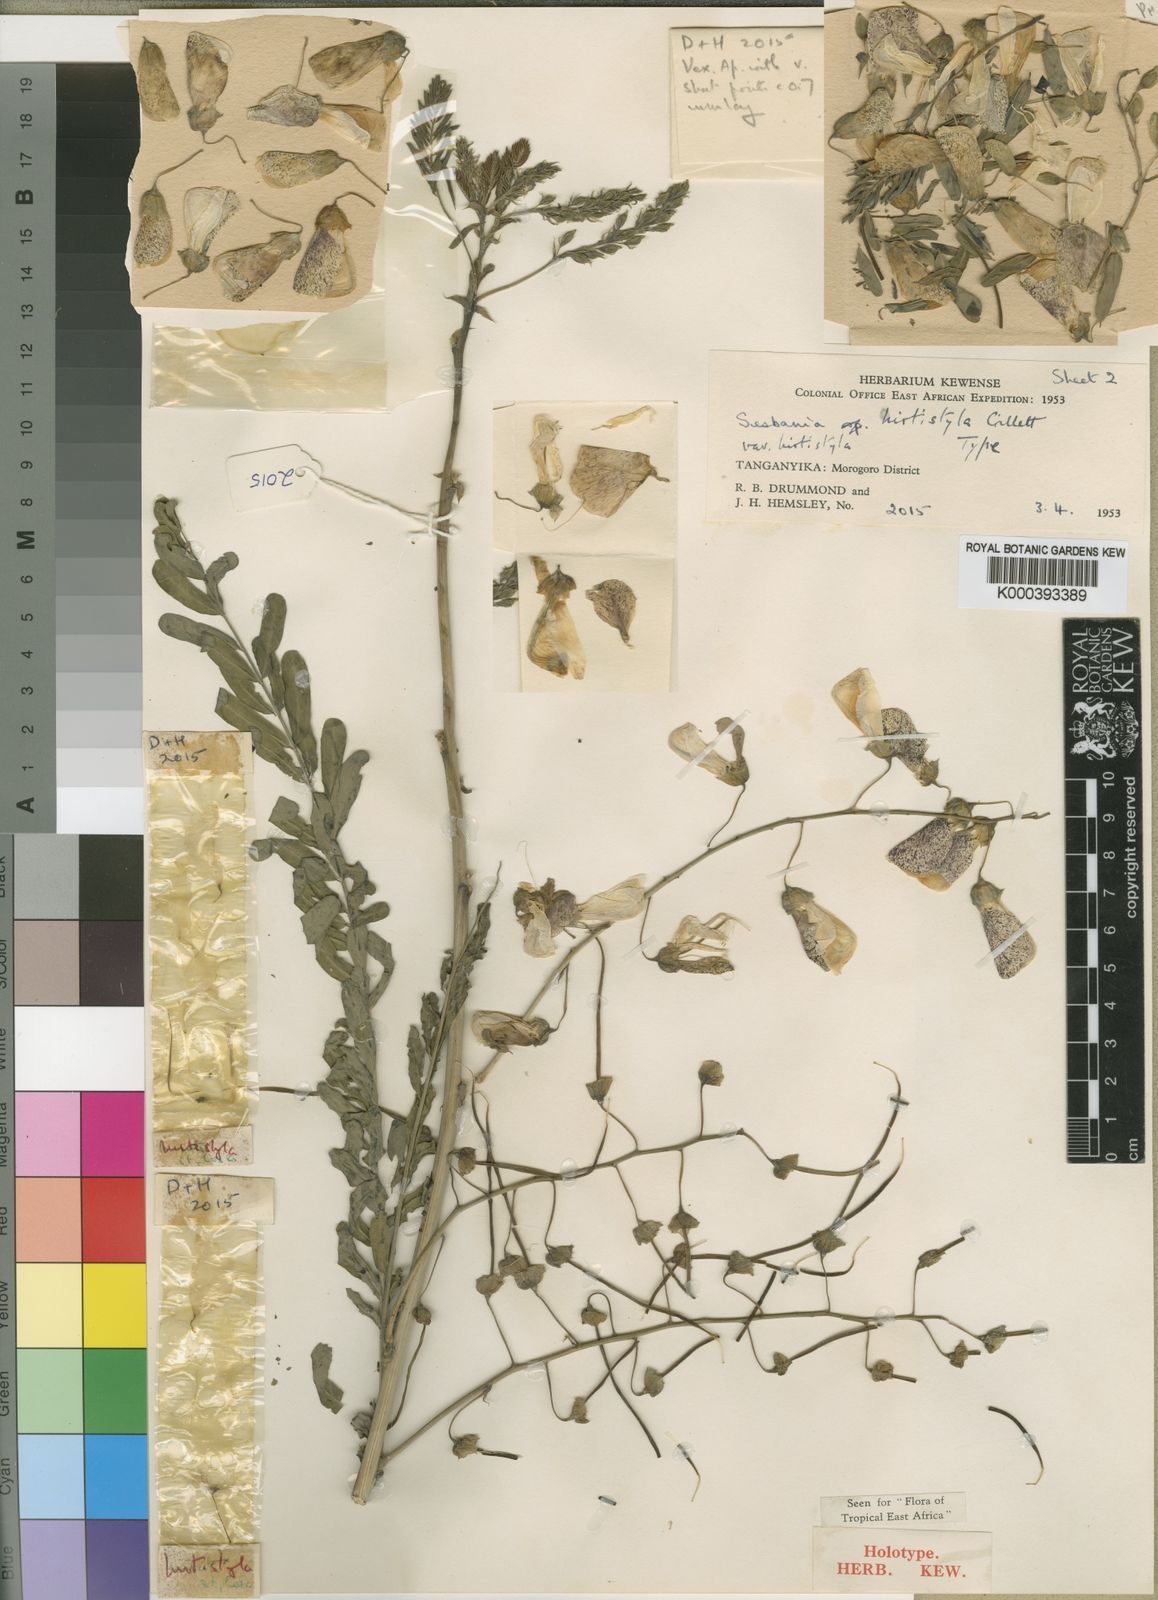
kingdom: Plantae
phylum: Tracheophyta
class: Magnoliopsida
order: Fabales
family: Fabaceae
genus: Sesbania
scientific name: Sesbania hirtistyla
